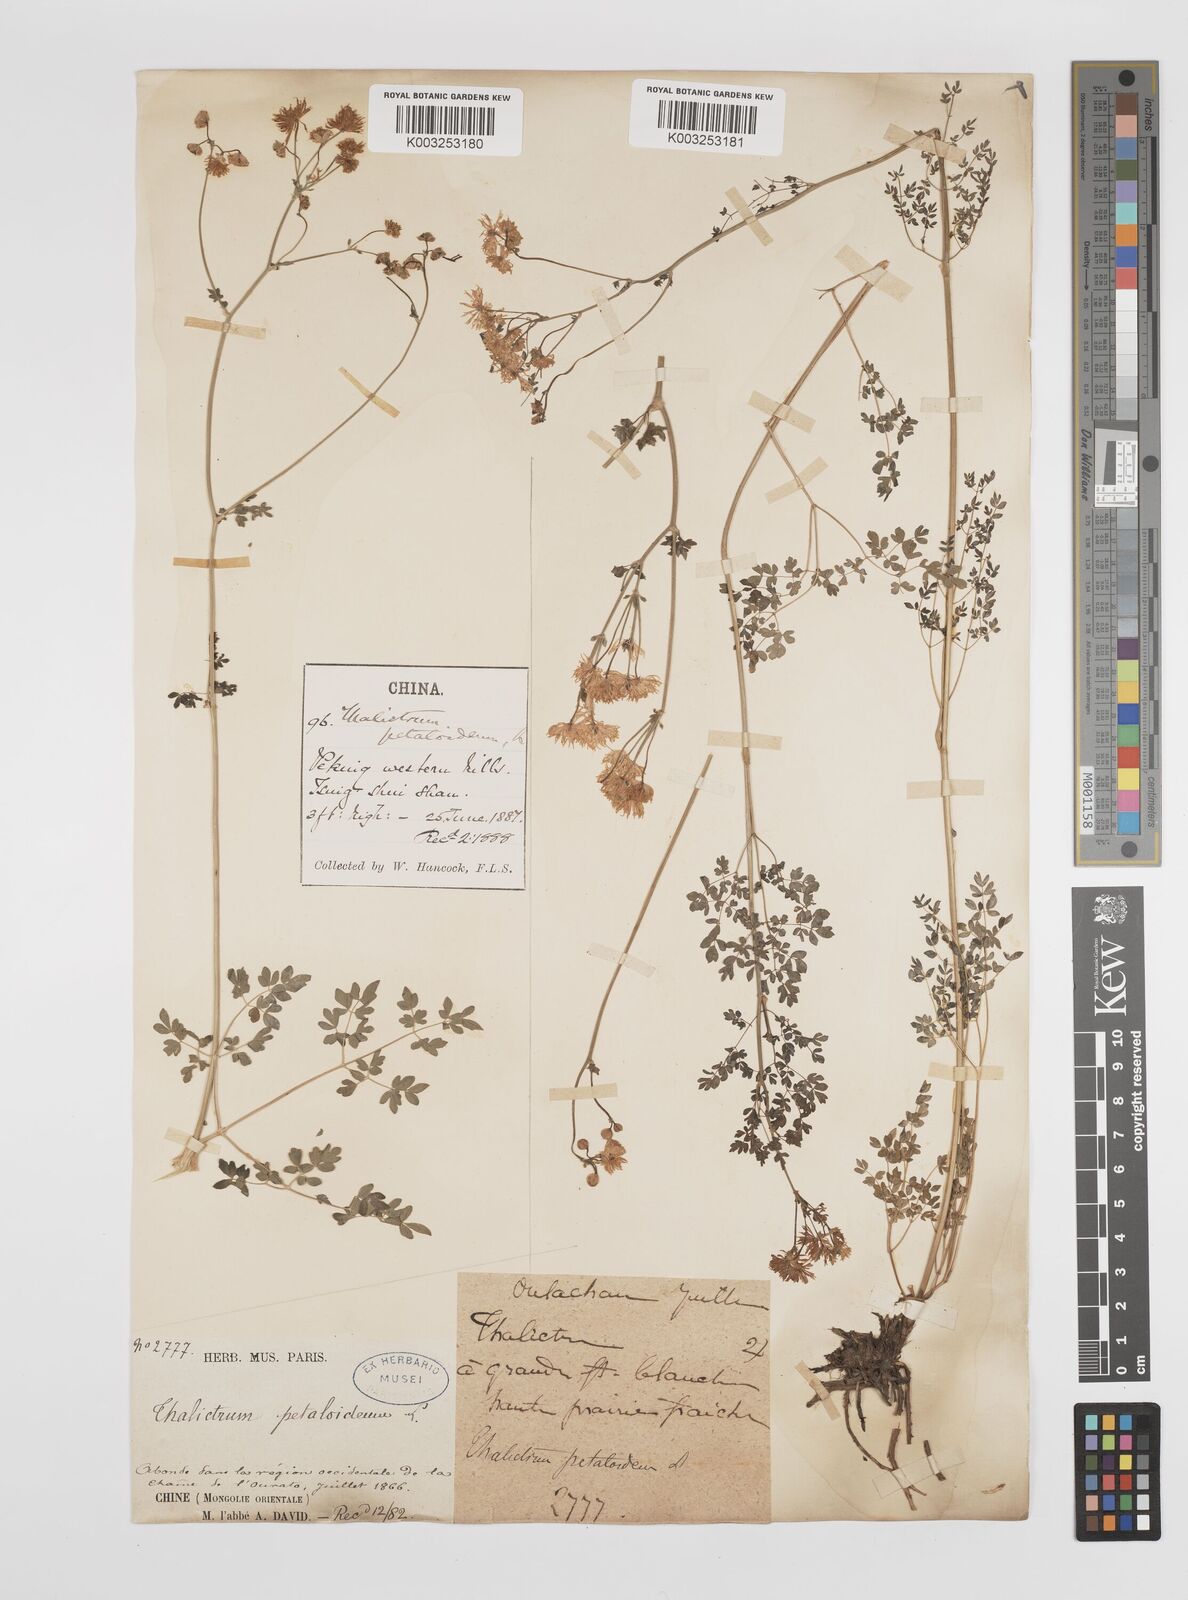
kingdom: Plantae
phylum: Tracheophyta
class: Magnoliopsida
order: Ranunculales
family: Ranunculaceae
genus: Thalictrum
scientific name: Thalictrum petaloideum
